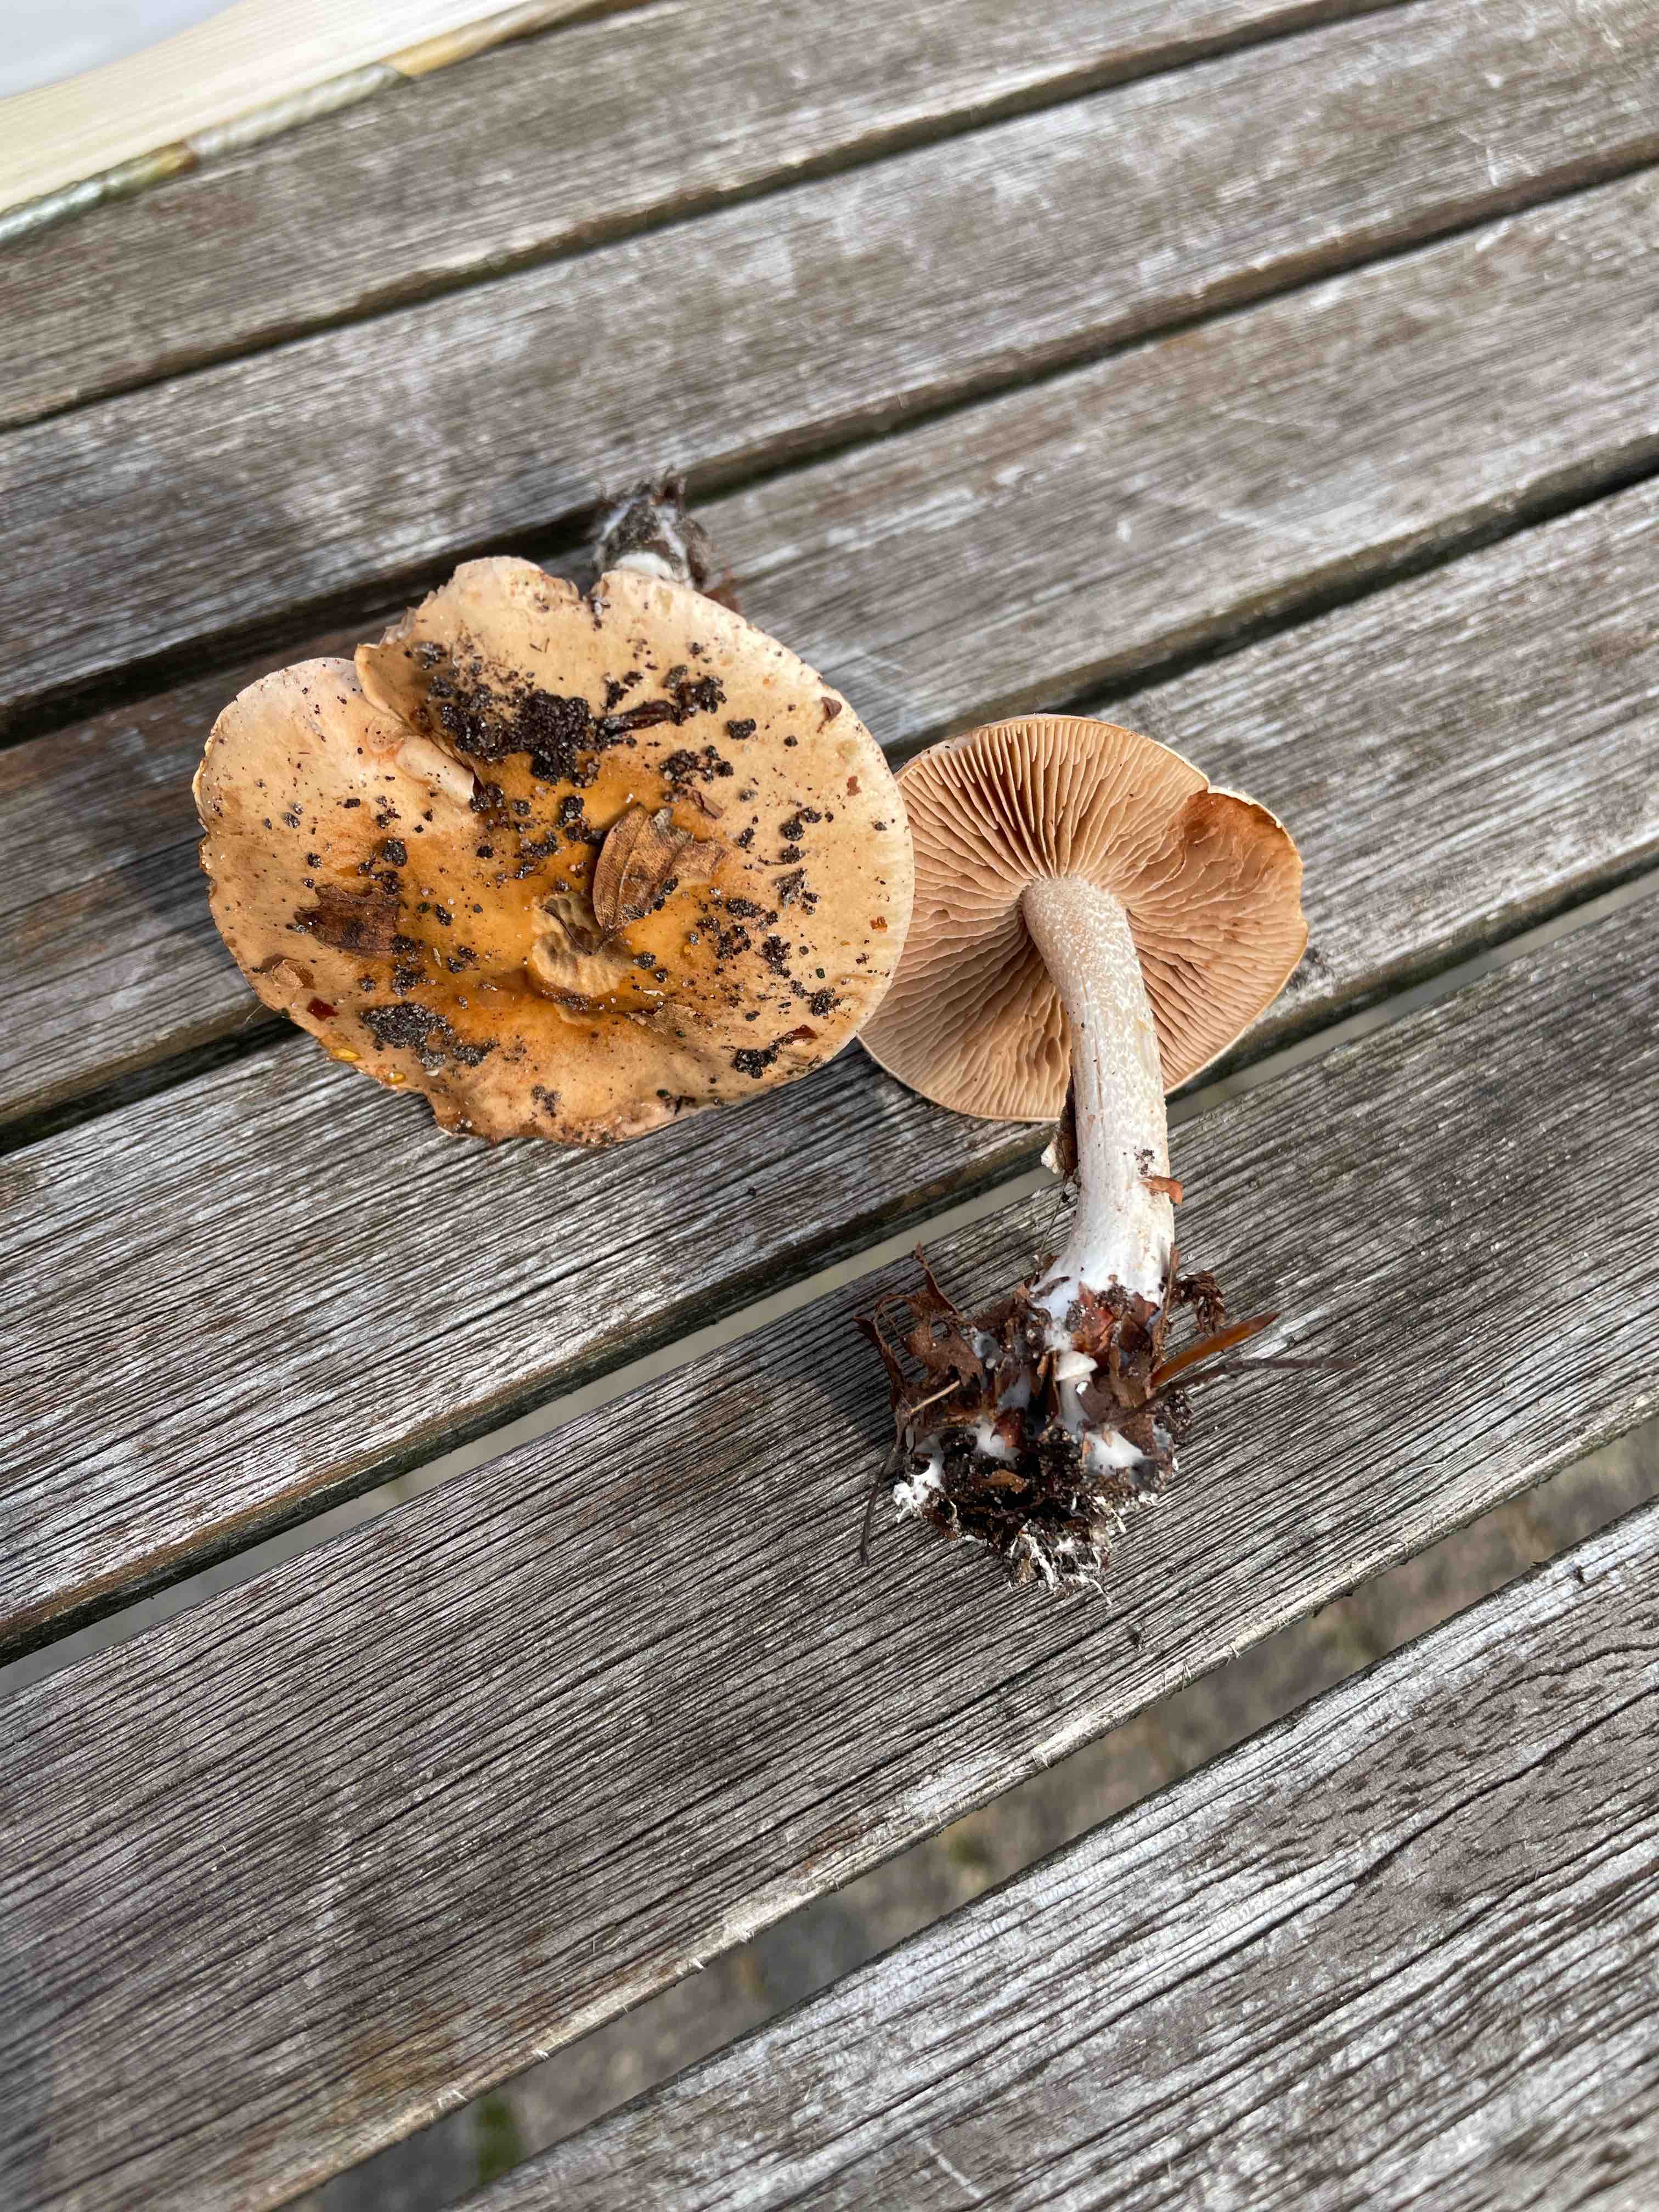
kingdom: Fungi
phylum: Basidiomycota
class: Agaricomycetes
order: Agaricales
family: Hymenogastraceae
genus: Hebeloma
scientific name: Hebeloma
